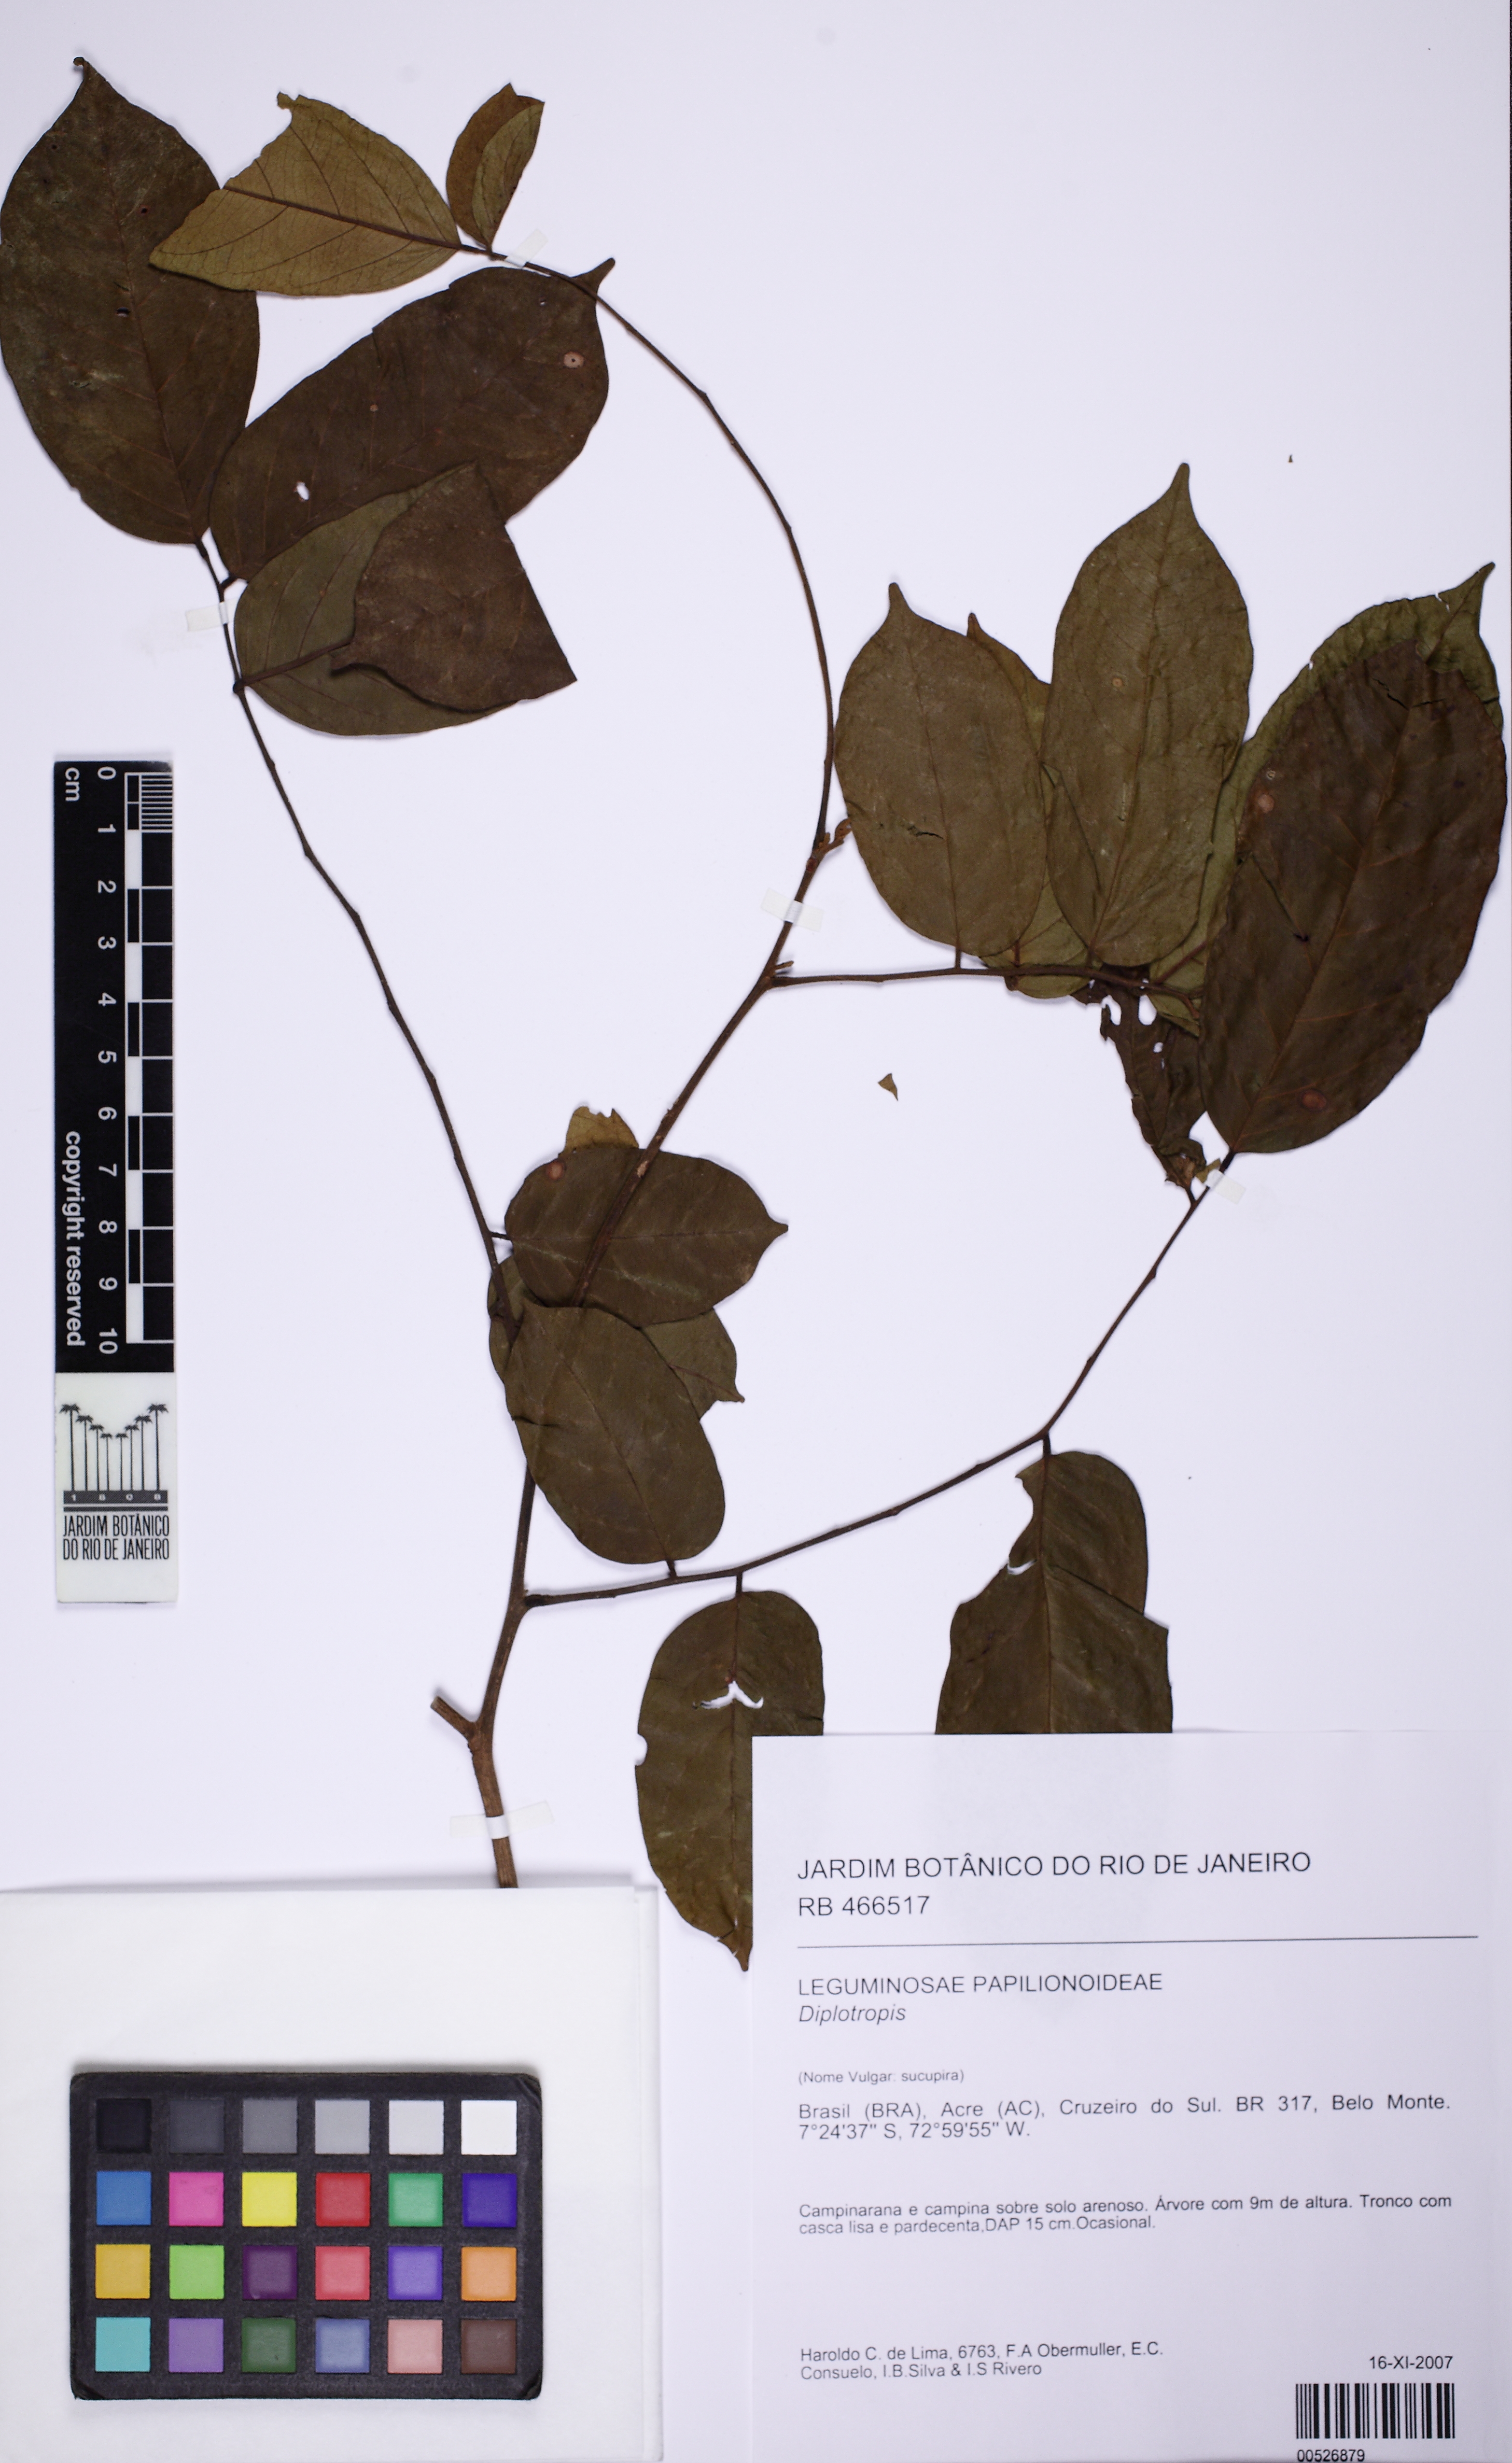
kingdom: Plantae
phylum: Tracheophyta
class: Magnoliopsida
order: Fabales
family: Fabaceae
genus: Diplotropis
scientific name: Diplotropis purpurea
